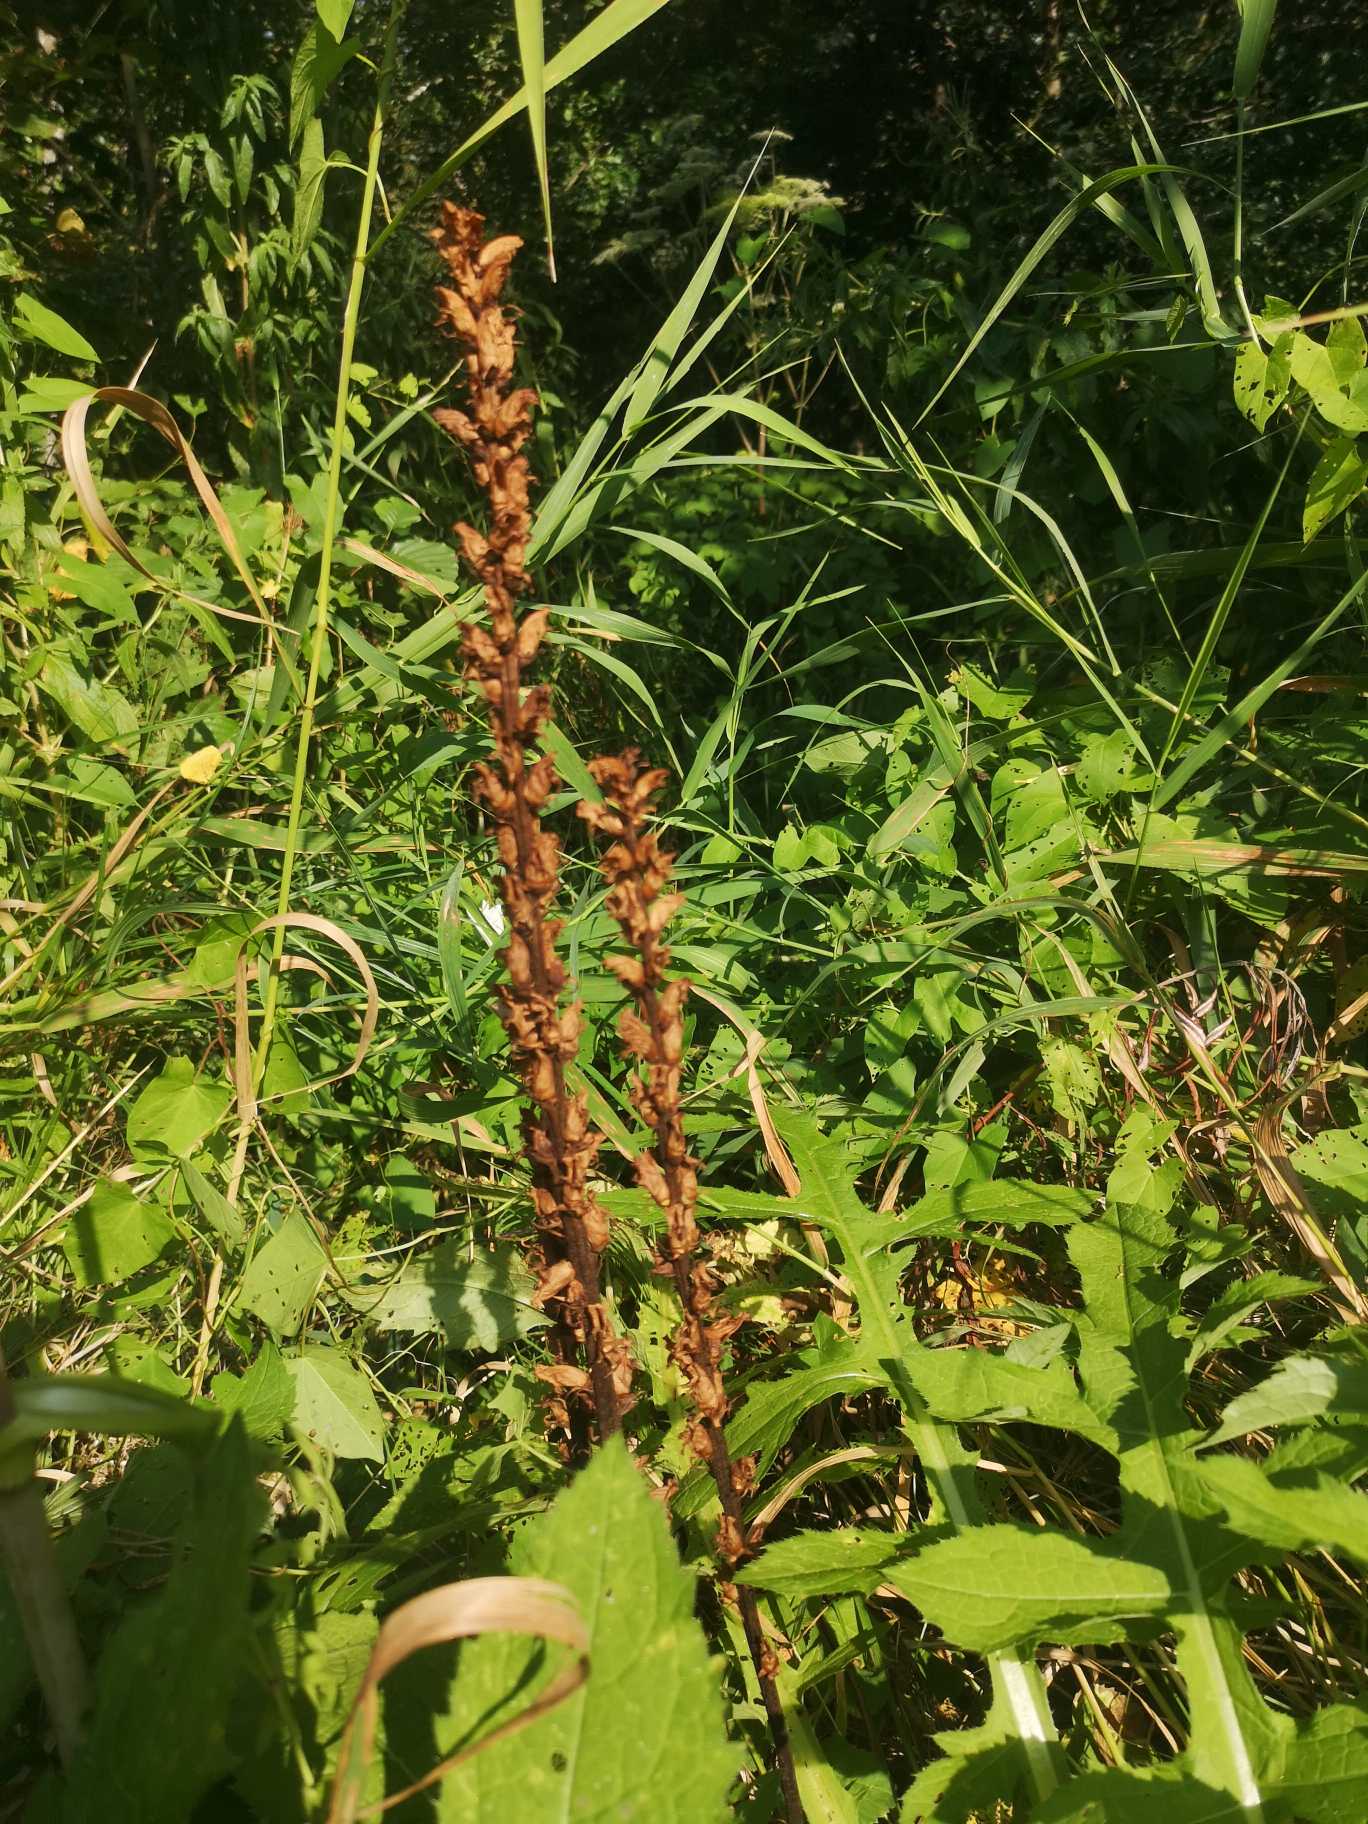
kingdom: Plantae
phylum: Tracheophyta
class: Magnoliopsida
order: Lamiales
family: Orobanchaceae
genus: Orobanche
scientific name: Orobanche reticulata
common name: Tidsel-gyvelkvæler
